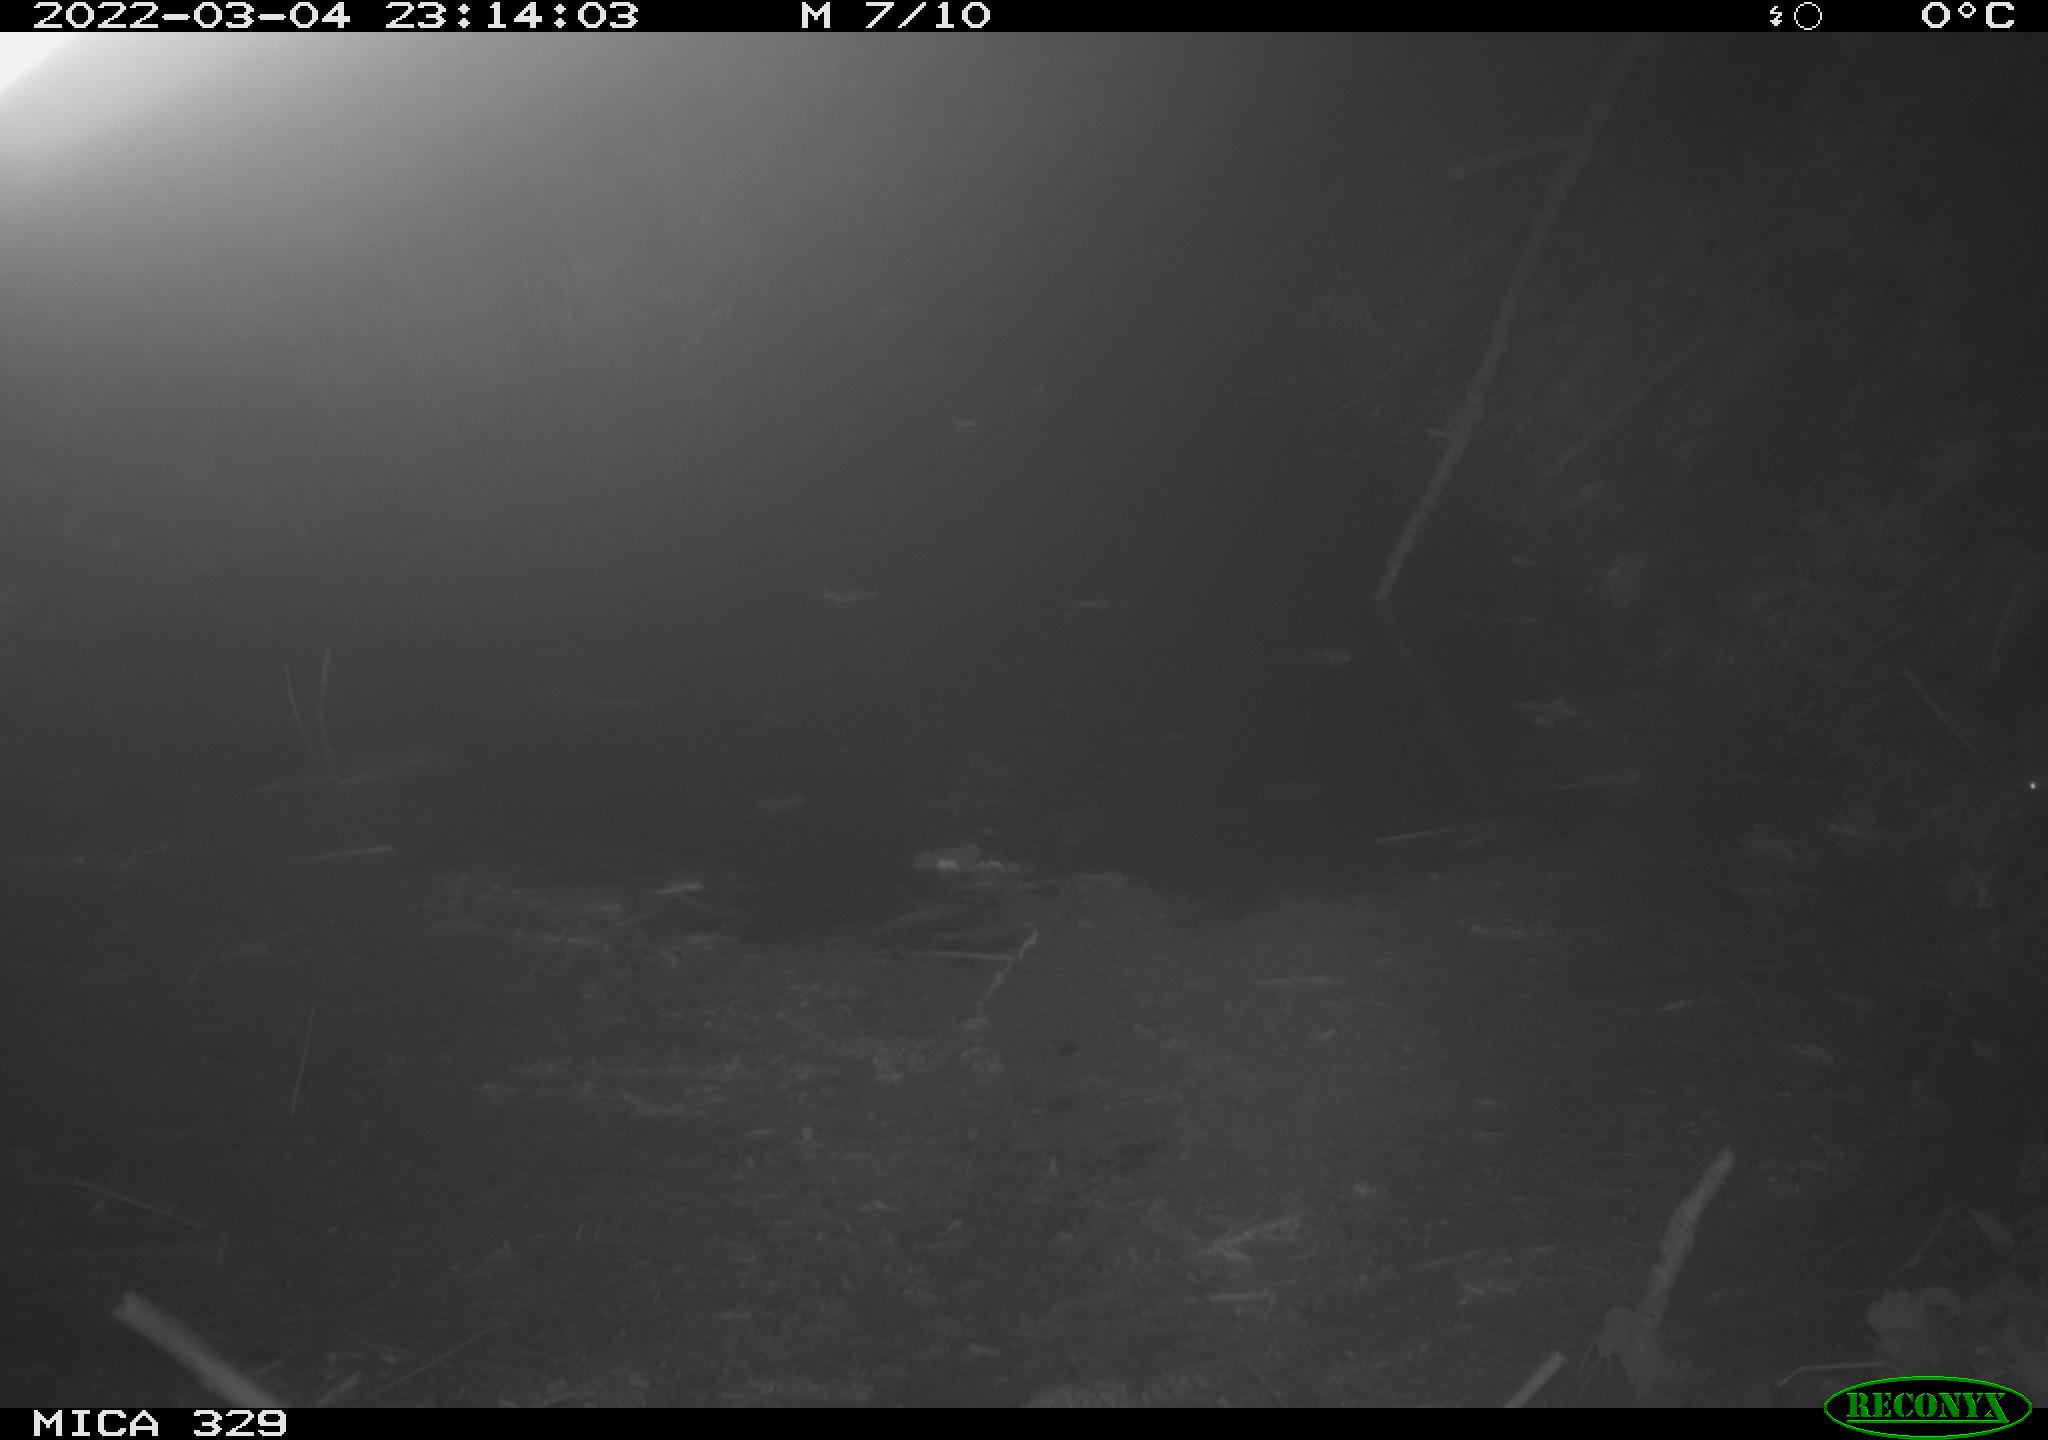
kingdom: Animalia
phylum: Chordata
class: Mammalia
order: Rodentia
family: Muridae
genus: Rattus
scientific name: Rattus norvegicus
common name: Brown rat
